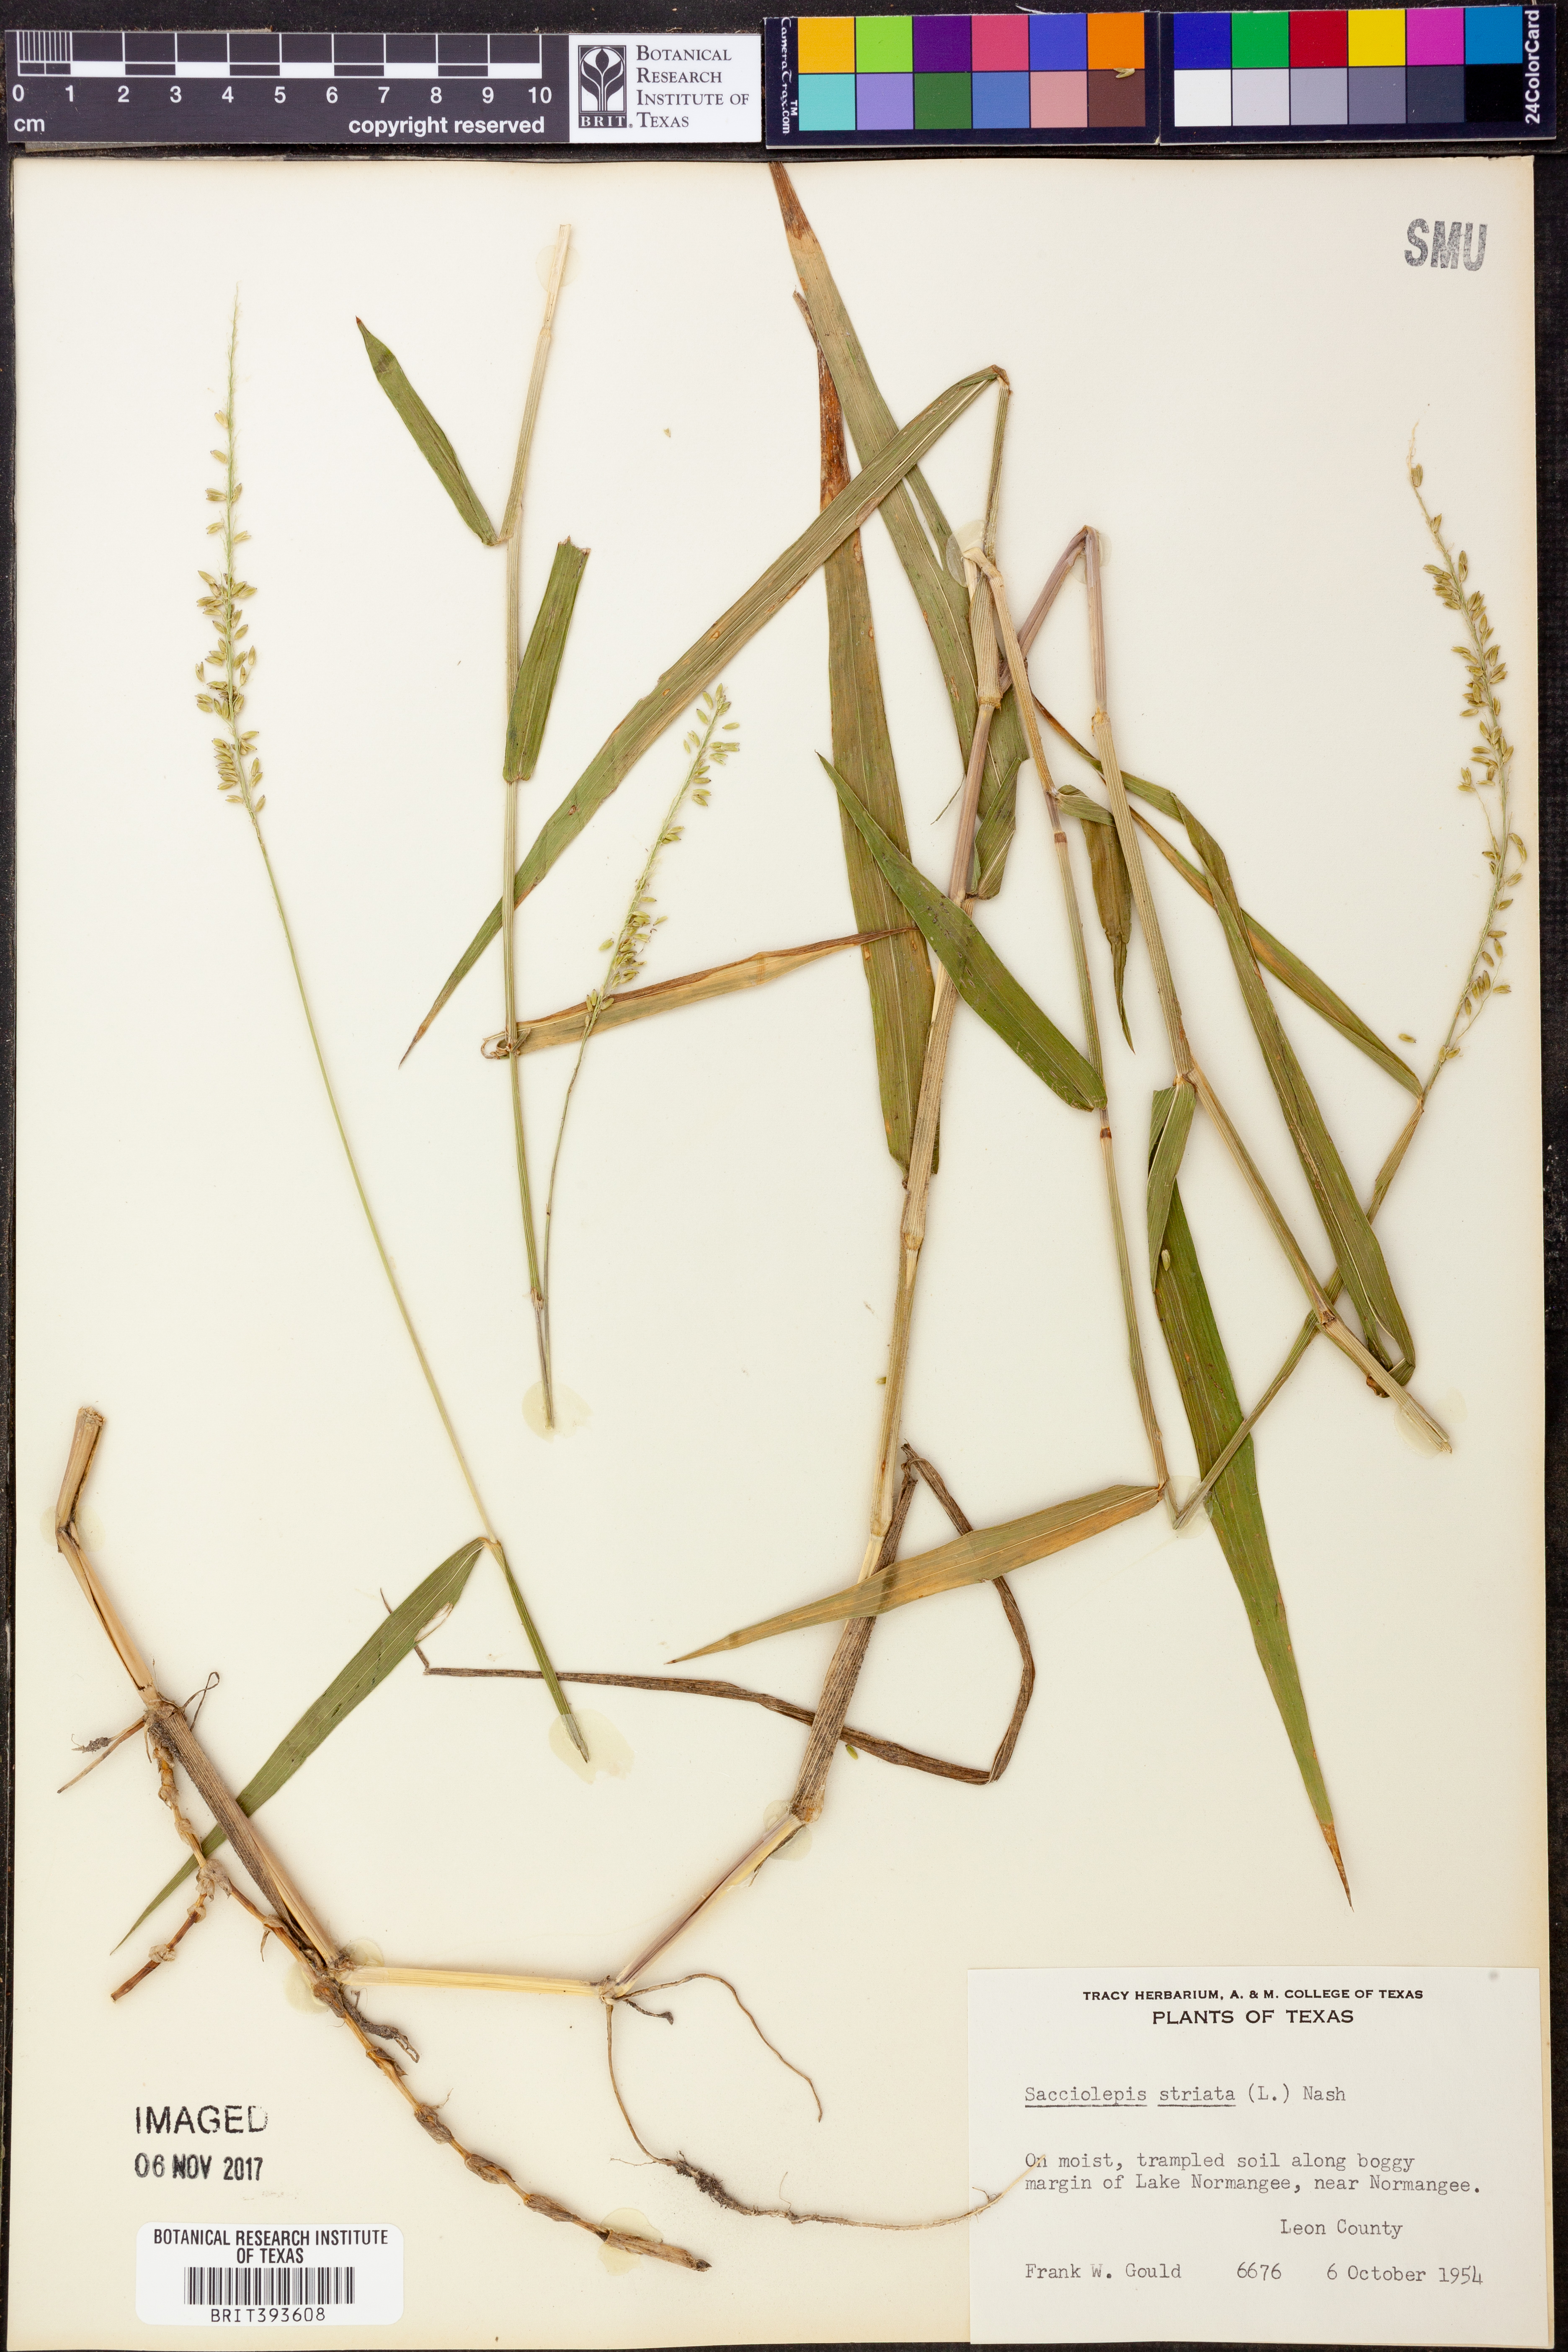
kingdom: Plantae
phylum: Tracheophyta
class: Liliopsida
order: Poales
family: Poaceae
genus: Sacciolepis
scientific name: Sacciolepis striata
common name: American cupscale
